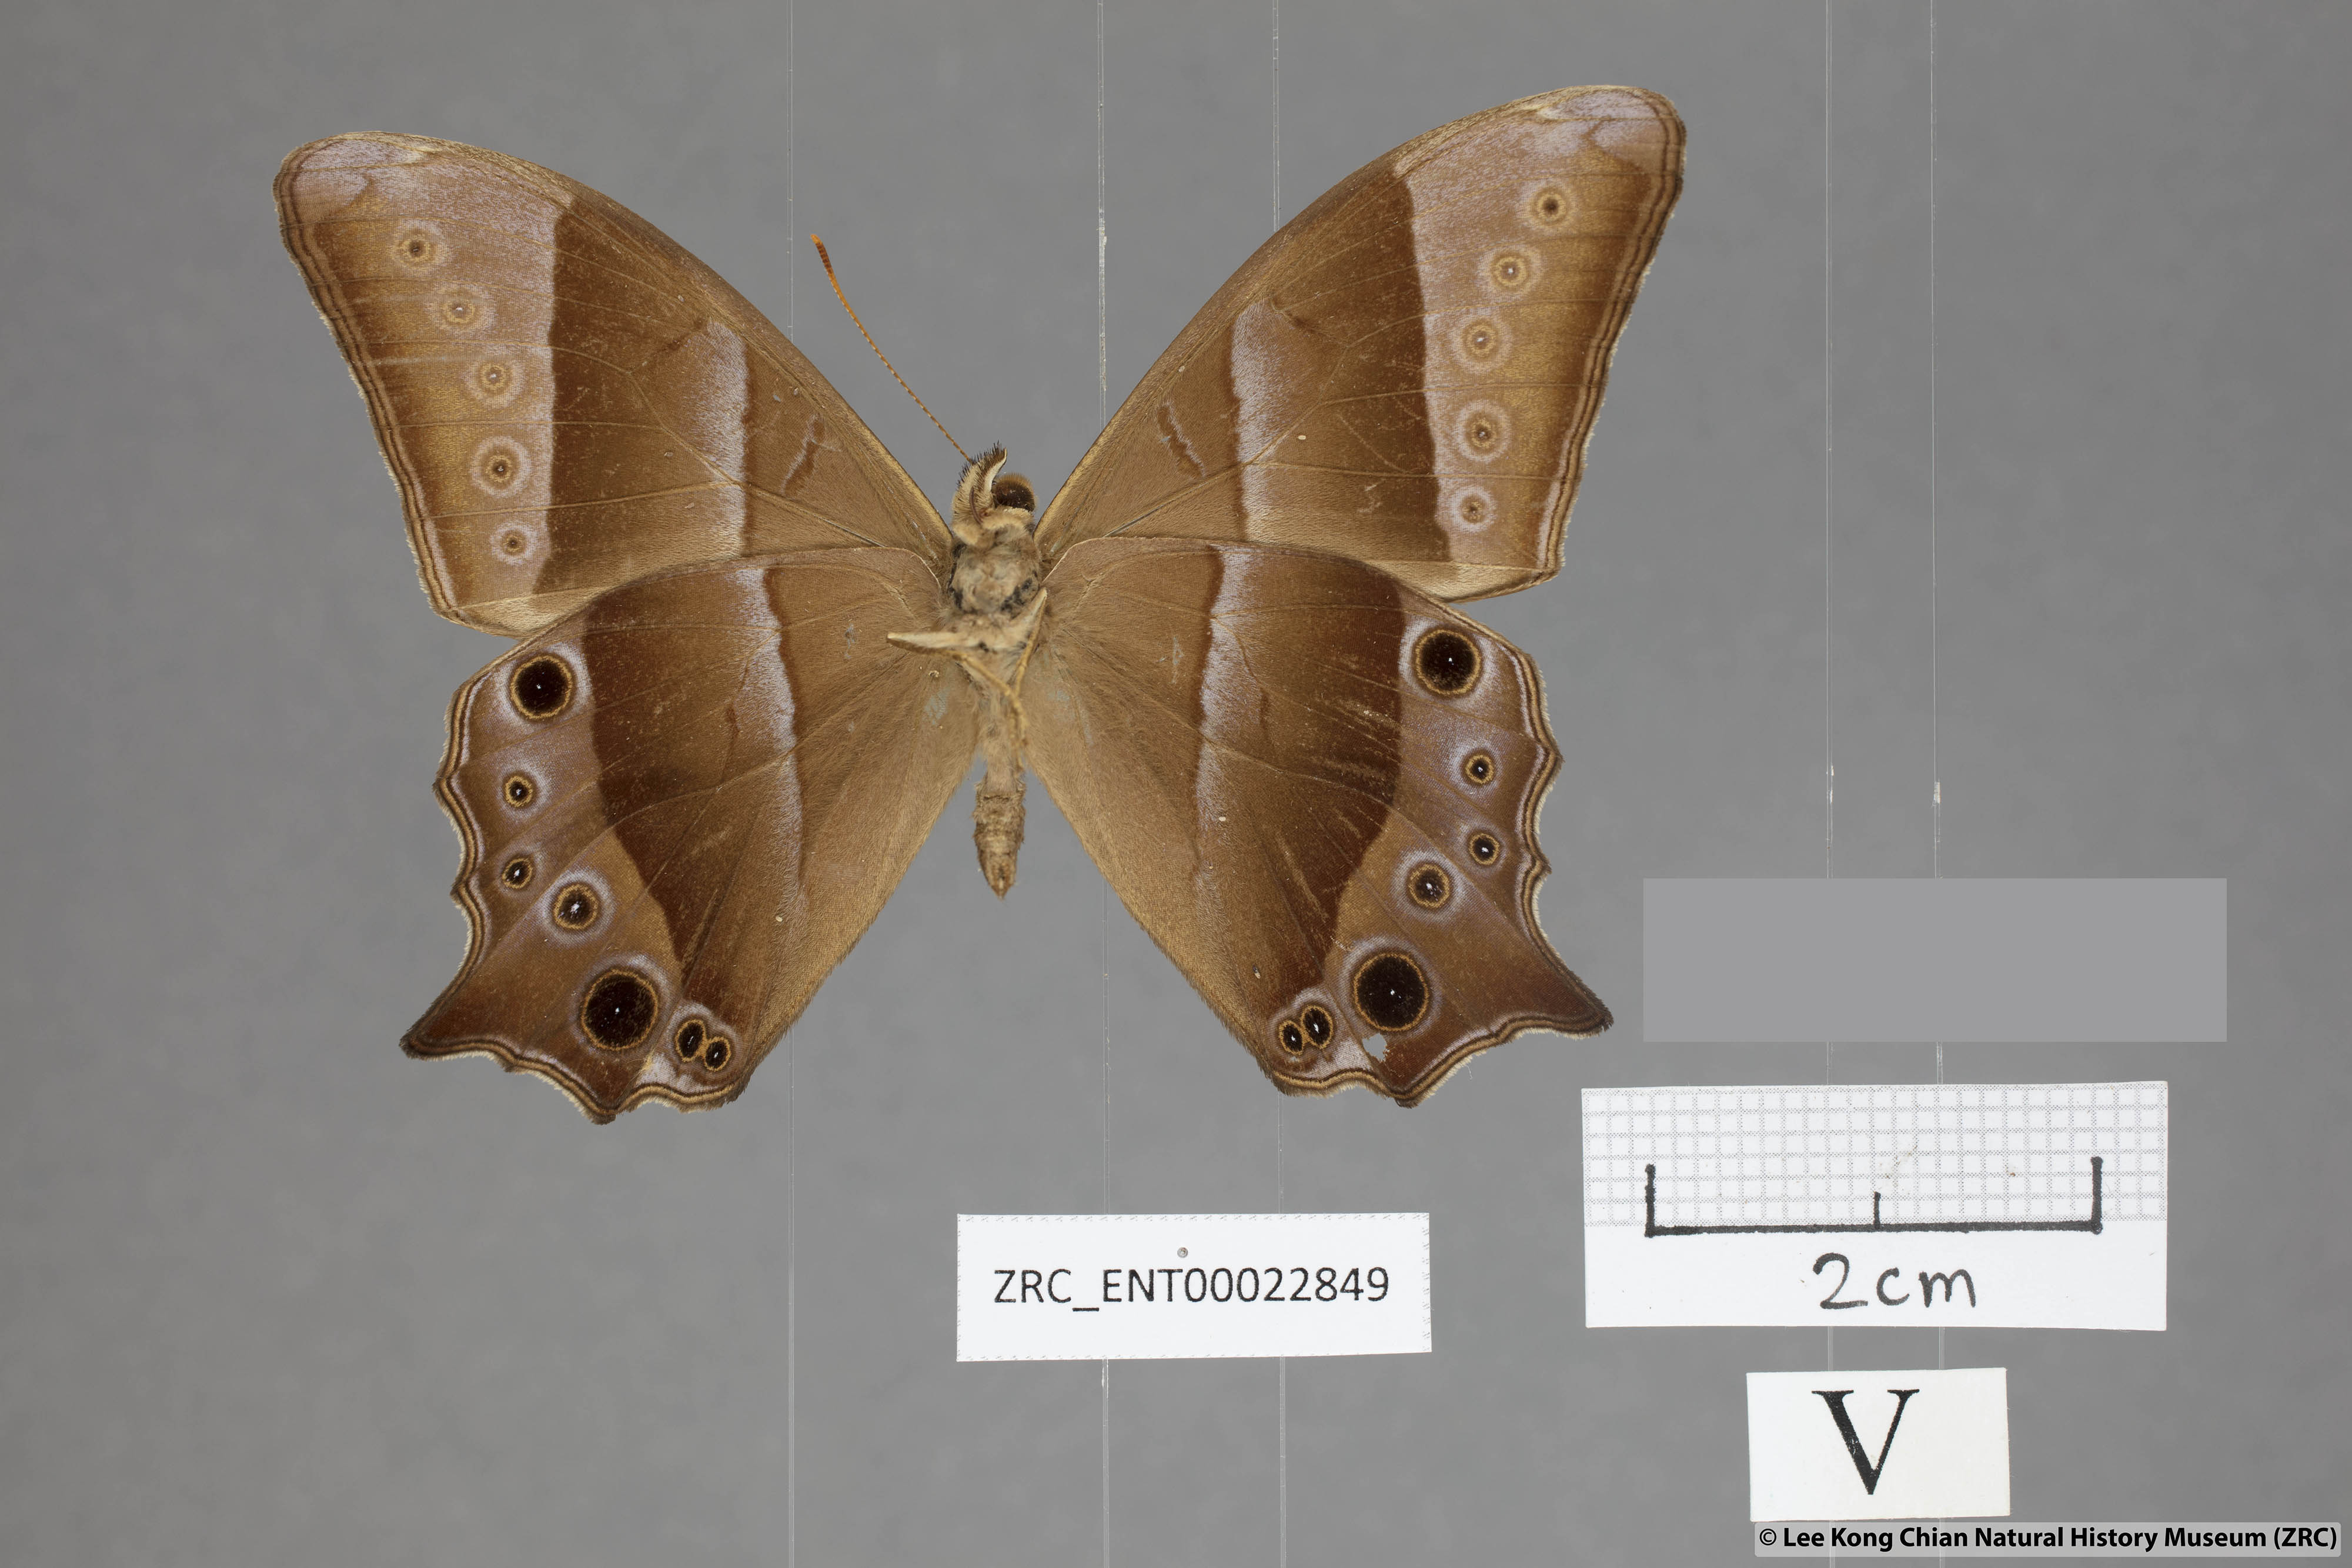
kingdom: Animalia
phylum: Arthropoda
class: Insecta
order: Lepidoptera
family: Nymphalidae
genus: Lethe
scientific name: Lethe vindhya
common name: Black forester
